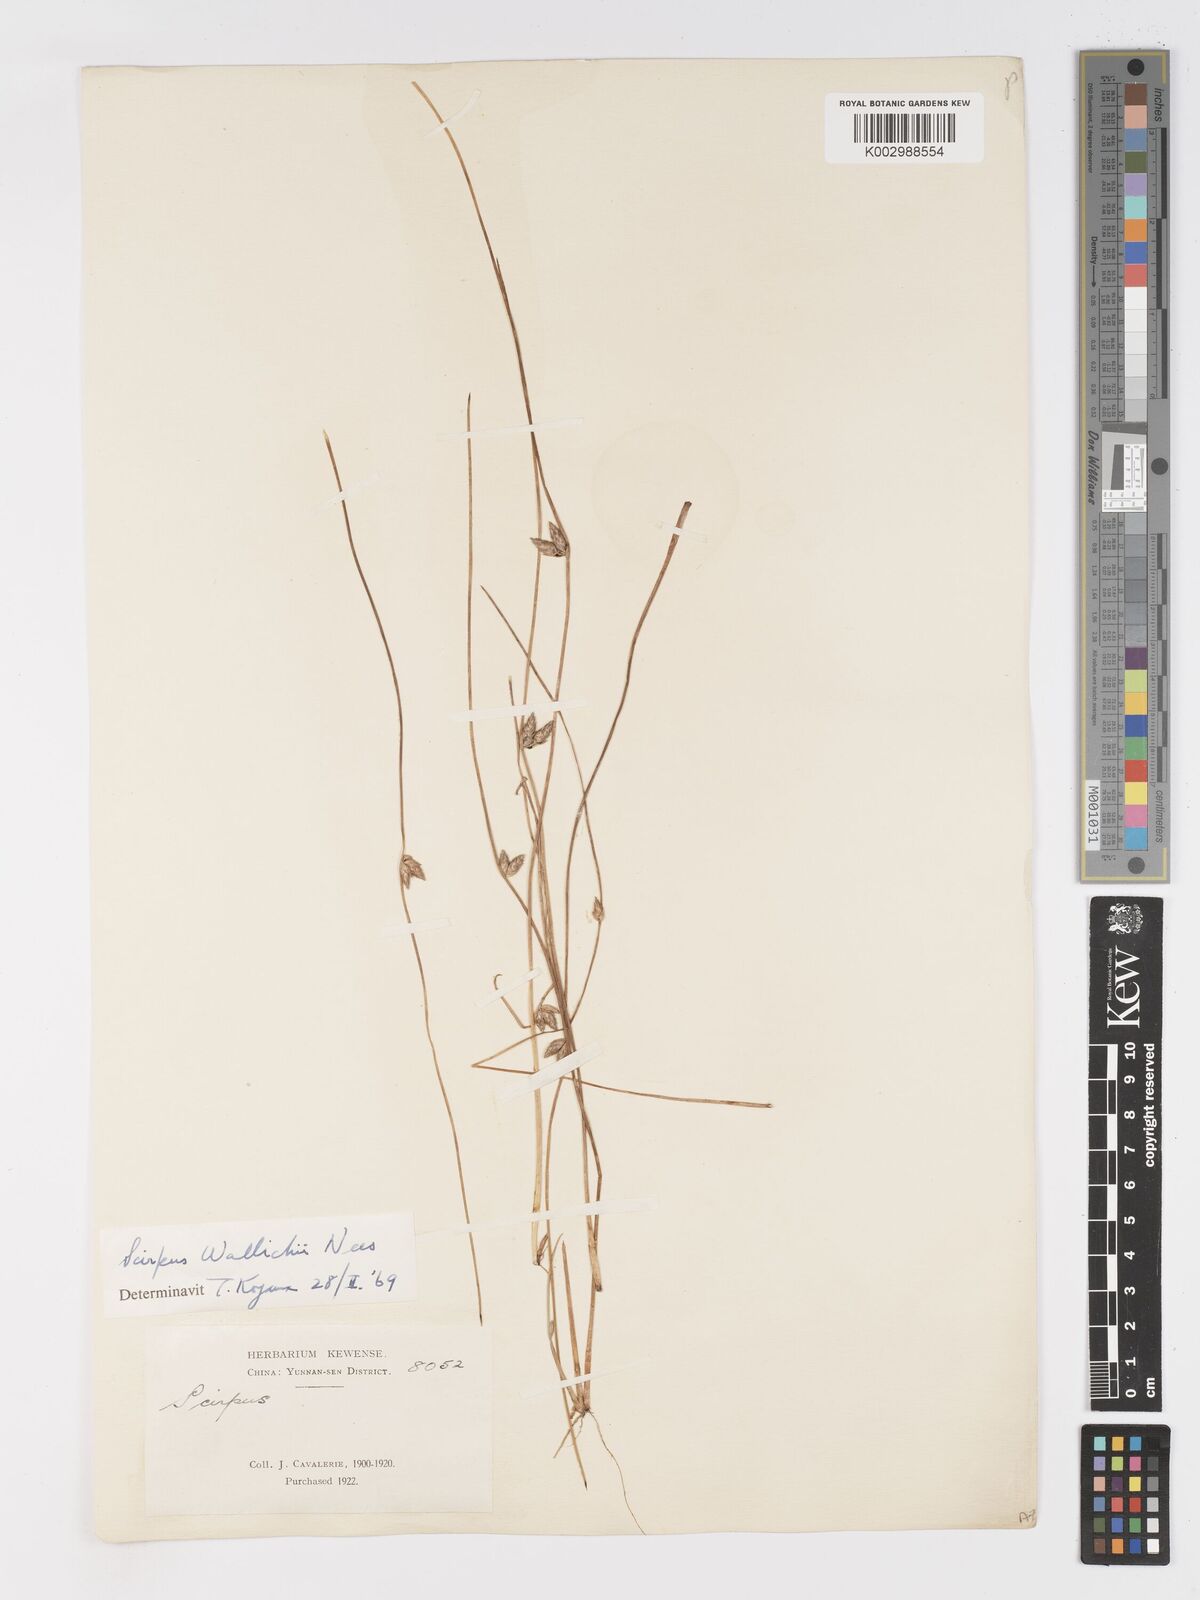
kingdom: Plantae
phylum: Tracheophyta
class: Liliopsida
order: Poales
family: Cyperaceae
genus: Schoenoplectiella
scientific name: Schoenoplectiella wallichii
